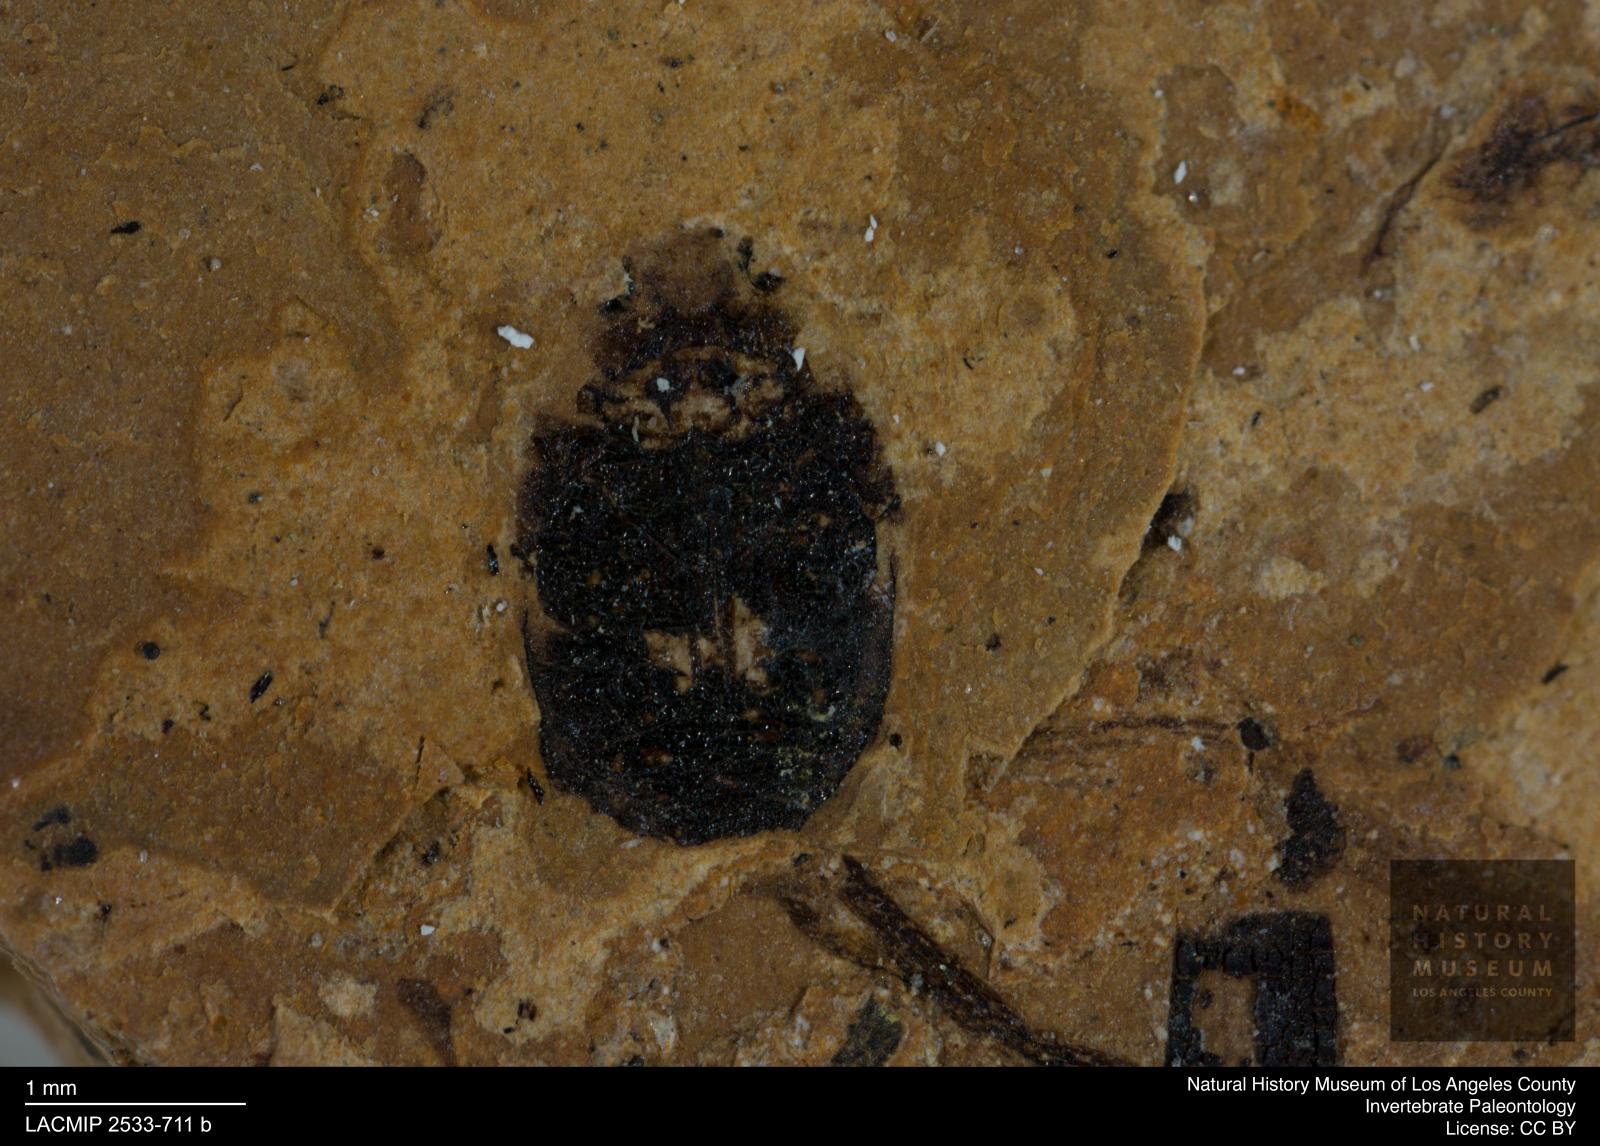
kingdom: Animalia
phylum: Arthropoda
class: Insecta
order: Coleoptera
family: Dytiscidae
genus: Oreodytes
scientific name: Oreodytes cryptolineatus
